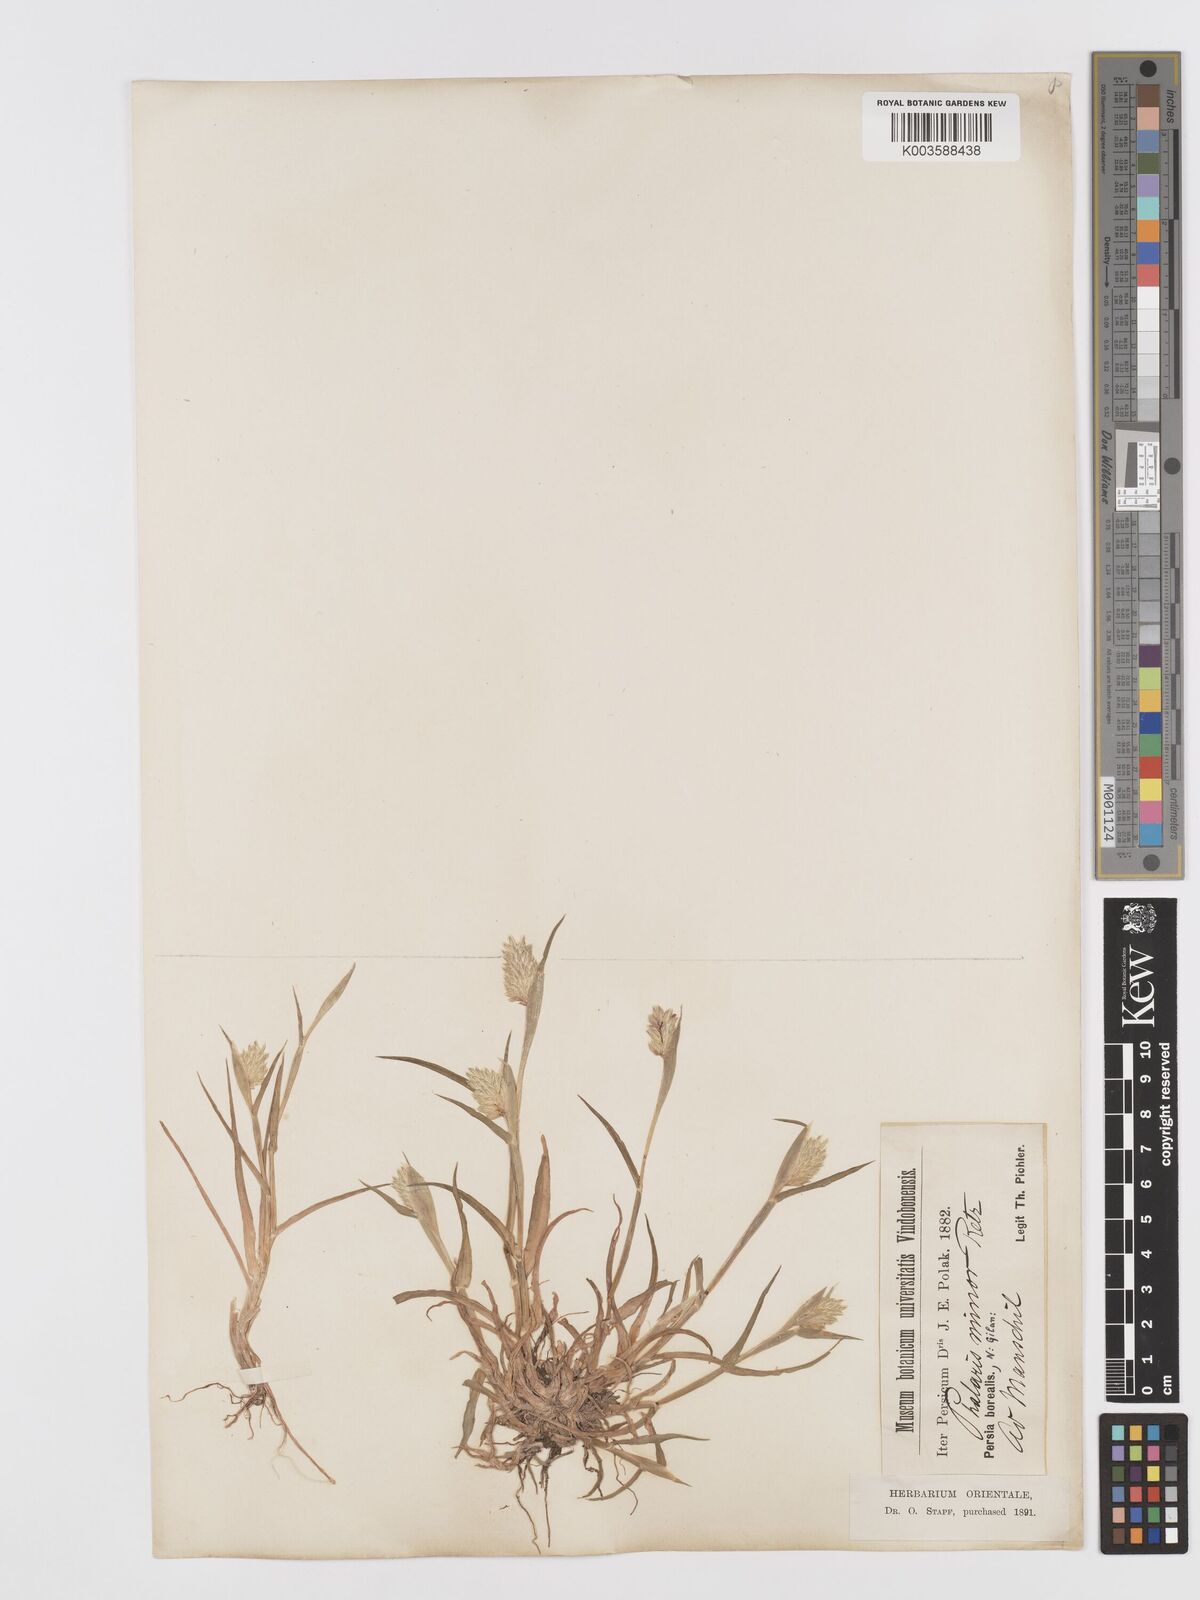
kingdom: Plantae
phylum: Tracheophyta
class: Liliopsida
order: Poales
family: Poaceae
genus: Phalaris
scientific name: Phalaris minor
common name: Littleseed canarygrass
